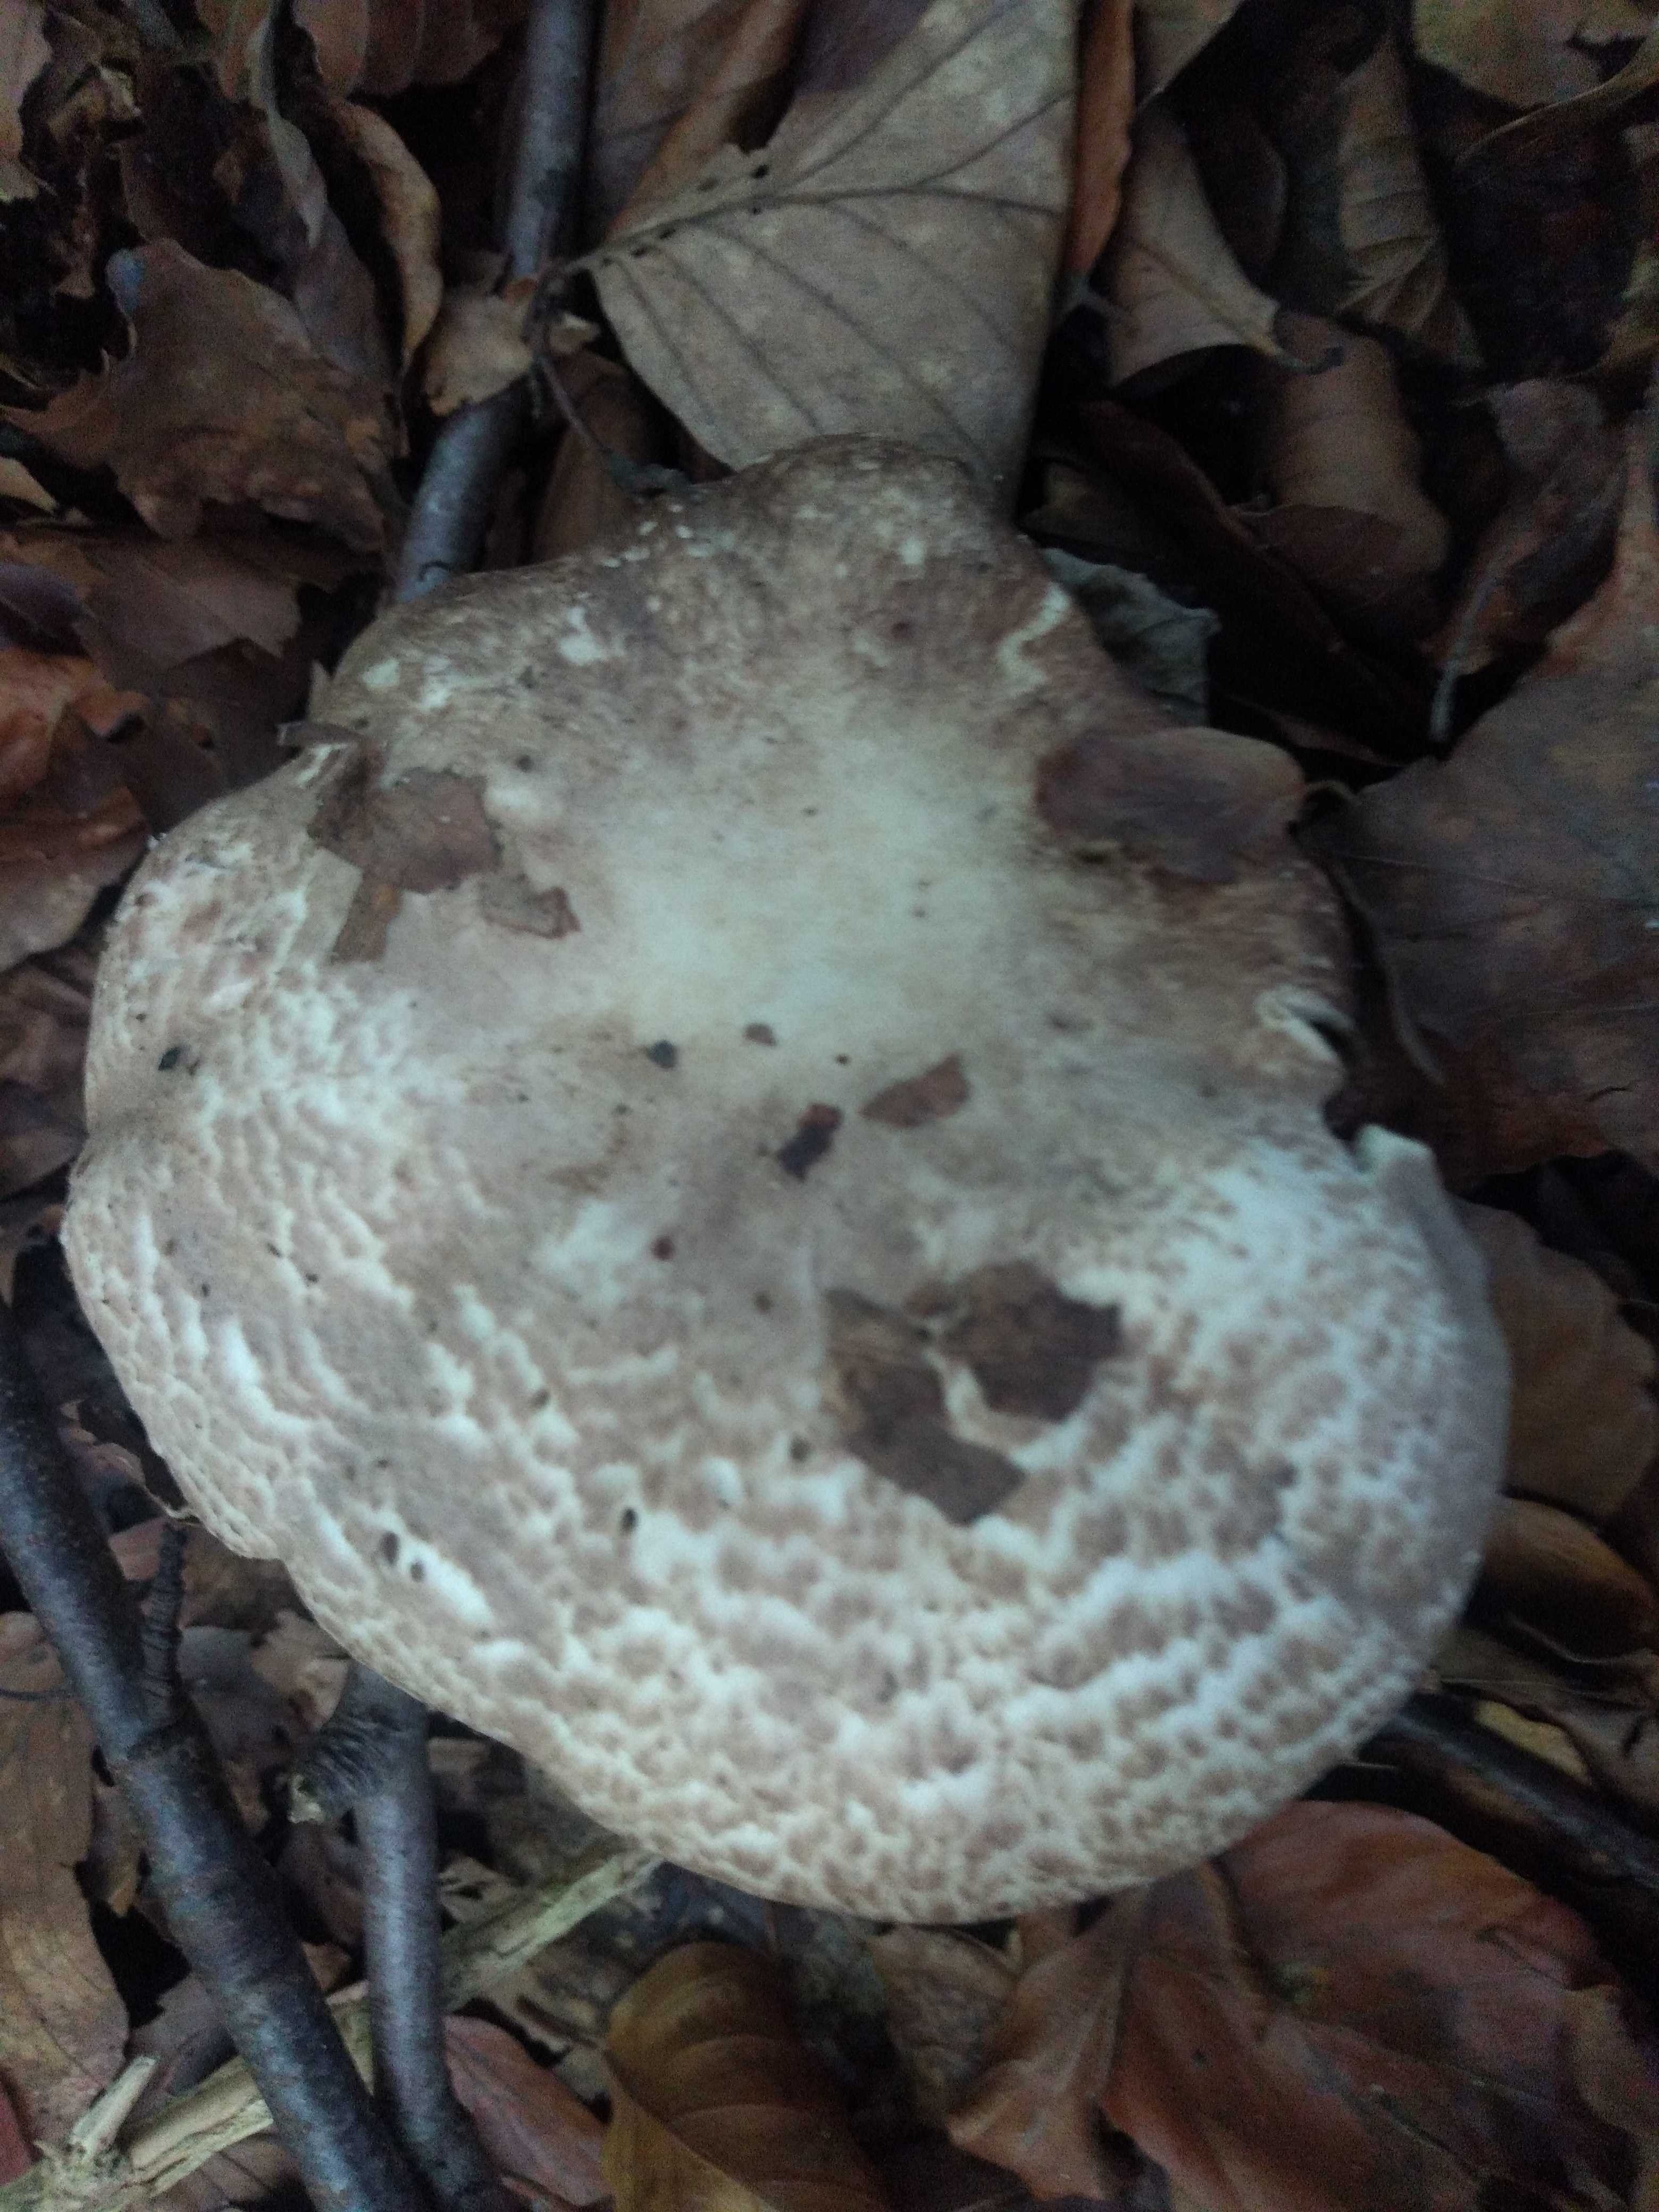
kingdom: Fungi
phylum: Basidiomycota
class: Agaricomycetes
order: Agaricales
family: Agaricaceae
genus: Echinoderma
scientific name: Echinoderma asperum
